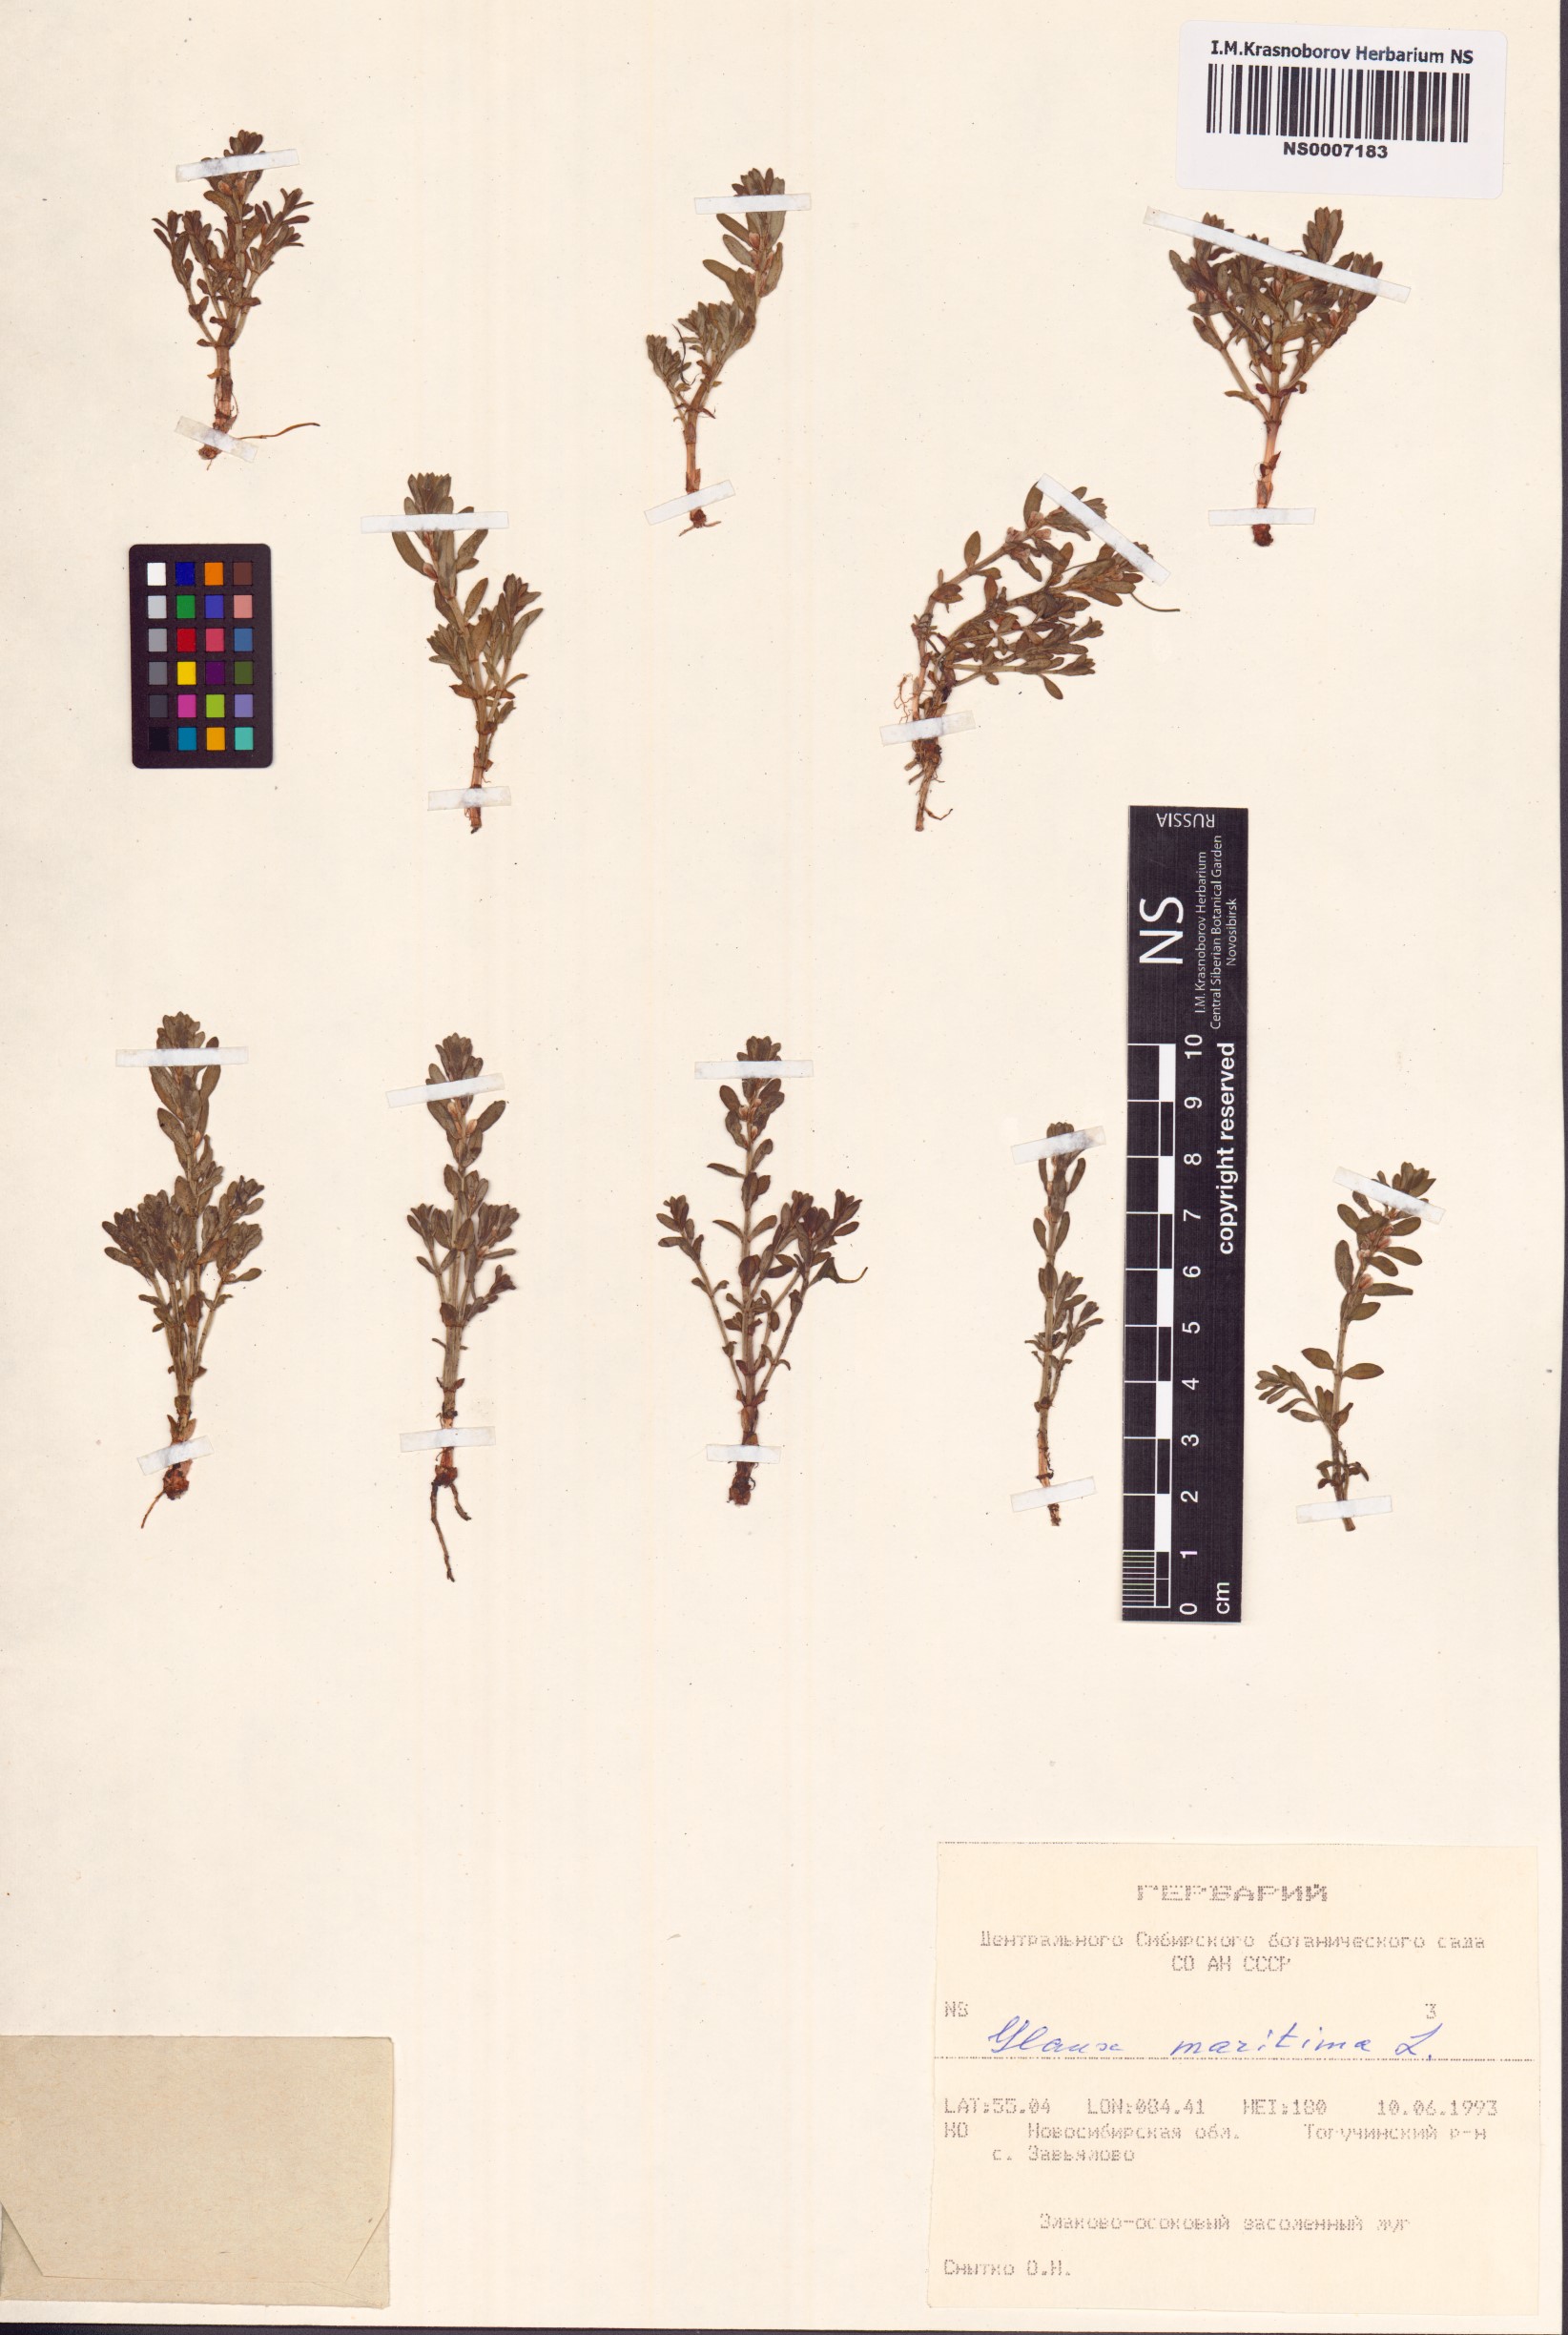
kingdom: Plantae
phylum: Tracheophyta
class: Magnoliopsida
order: Ericales
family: Primulaceae
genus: Lysimachia
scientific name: Lysimachia maritima
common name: Sea milkwort
